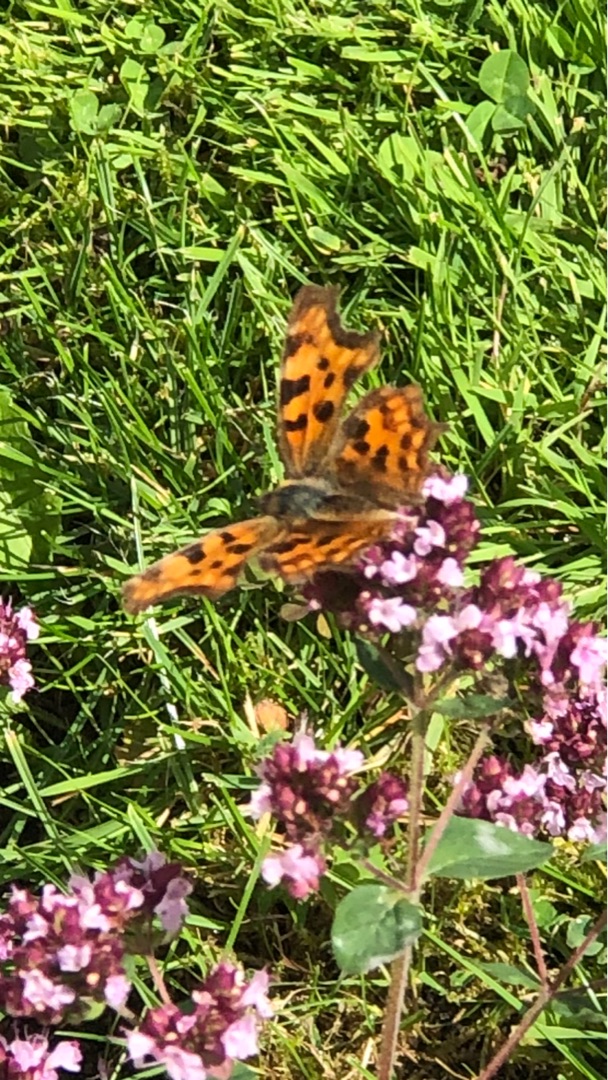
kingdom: Animalia
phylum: Arthropoda
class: Insecta
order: Lepidoptera
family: Nymphalidae
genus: Polygonia
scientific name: Polygonia c-album
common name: Det hvide C
